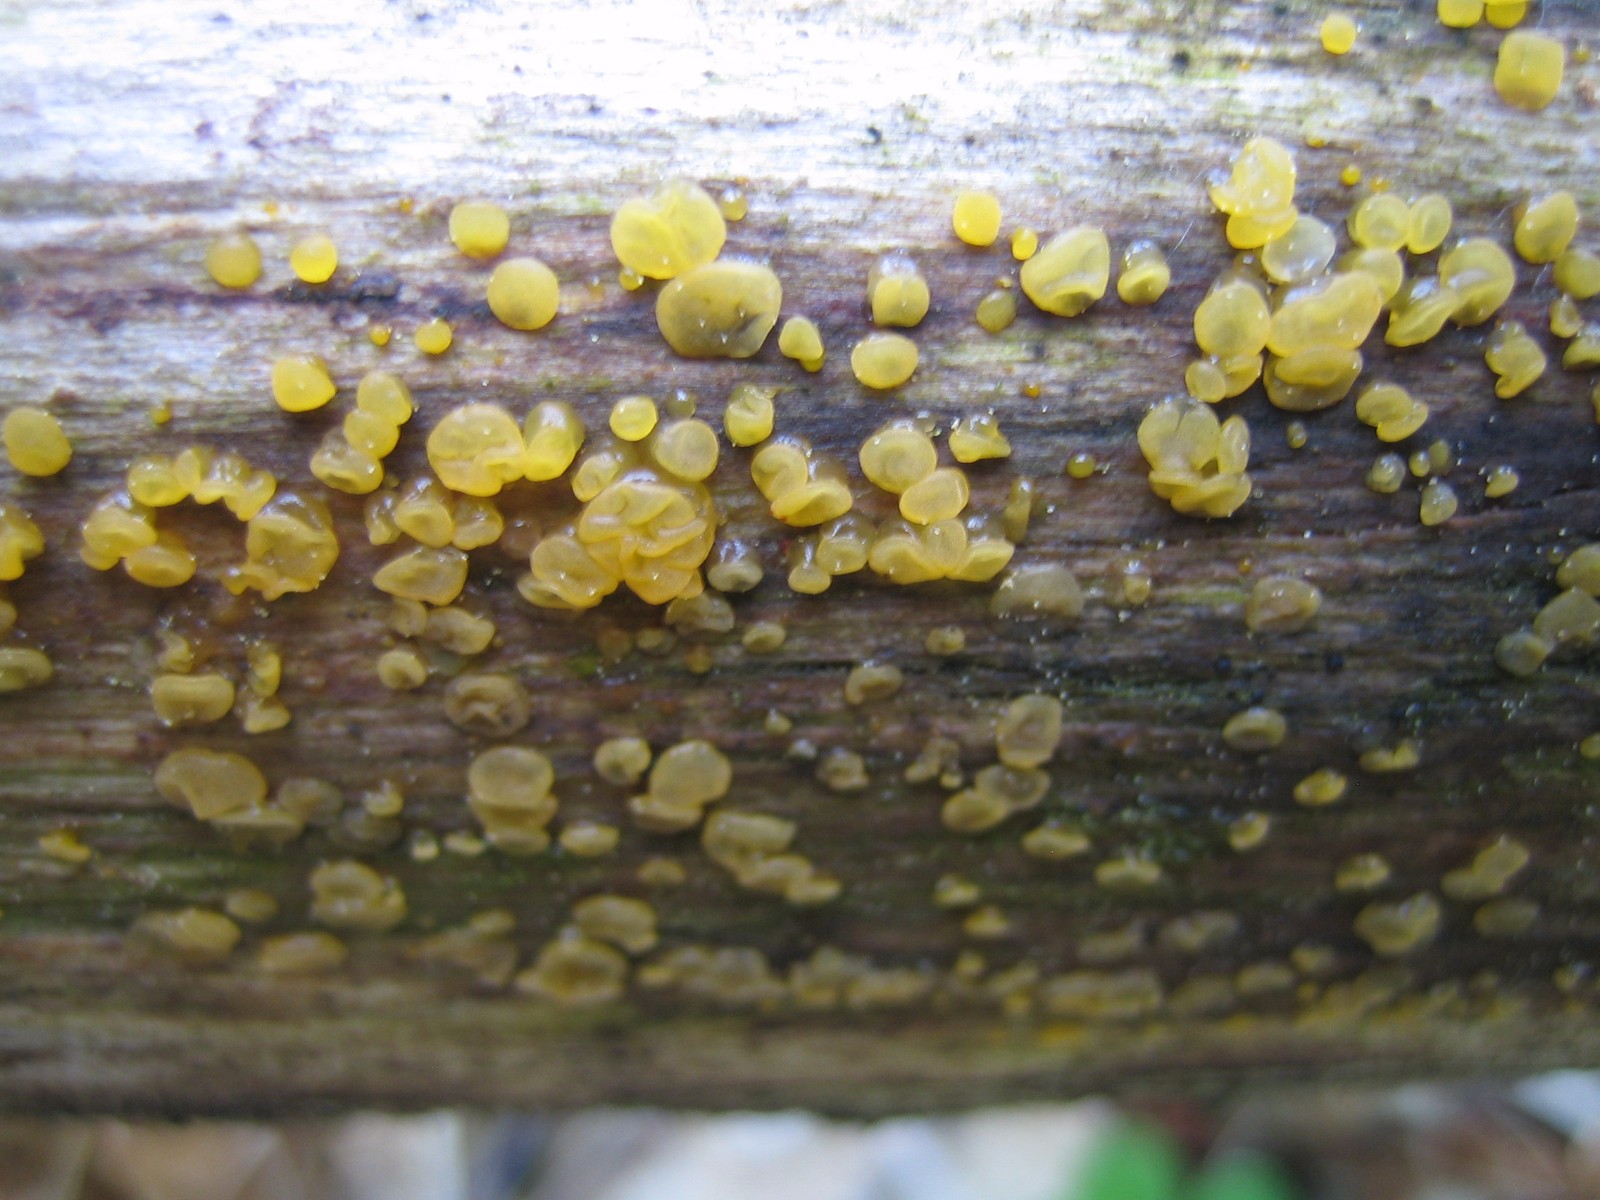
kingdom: Fungi
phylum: Basidiomycota
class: Dacrymycetes
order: Dacrymycetales
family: Dacrymycetaceae
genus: Dacrymyces
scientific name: Dacrymyces
